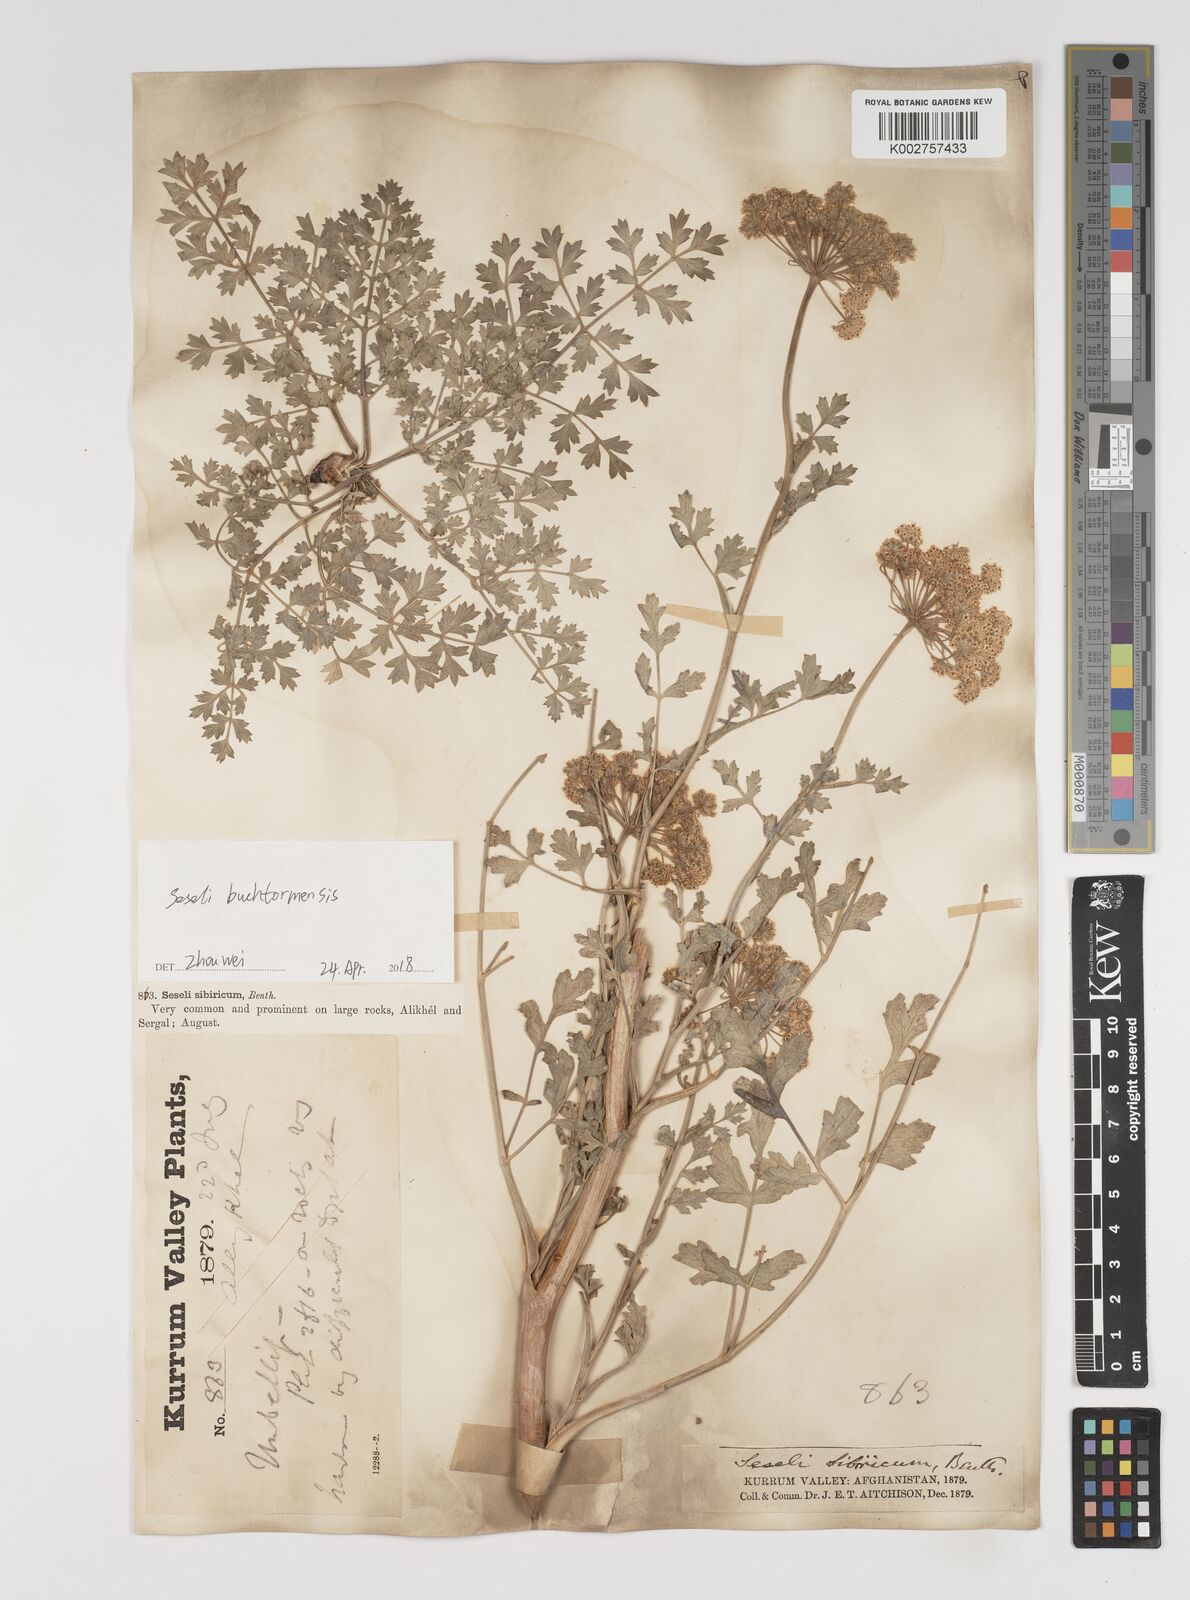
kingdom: Plantae
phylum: Tracheophyta
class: Magnoliopsida
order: Apiales
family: Apiaceae
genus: Seseli
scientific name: Seseli buchtormense
